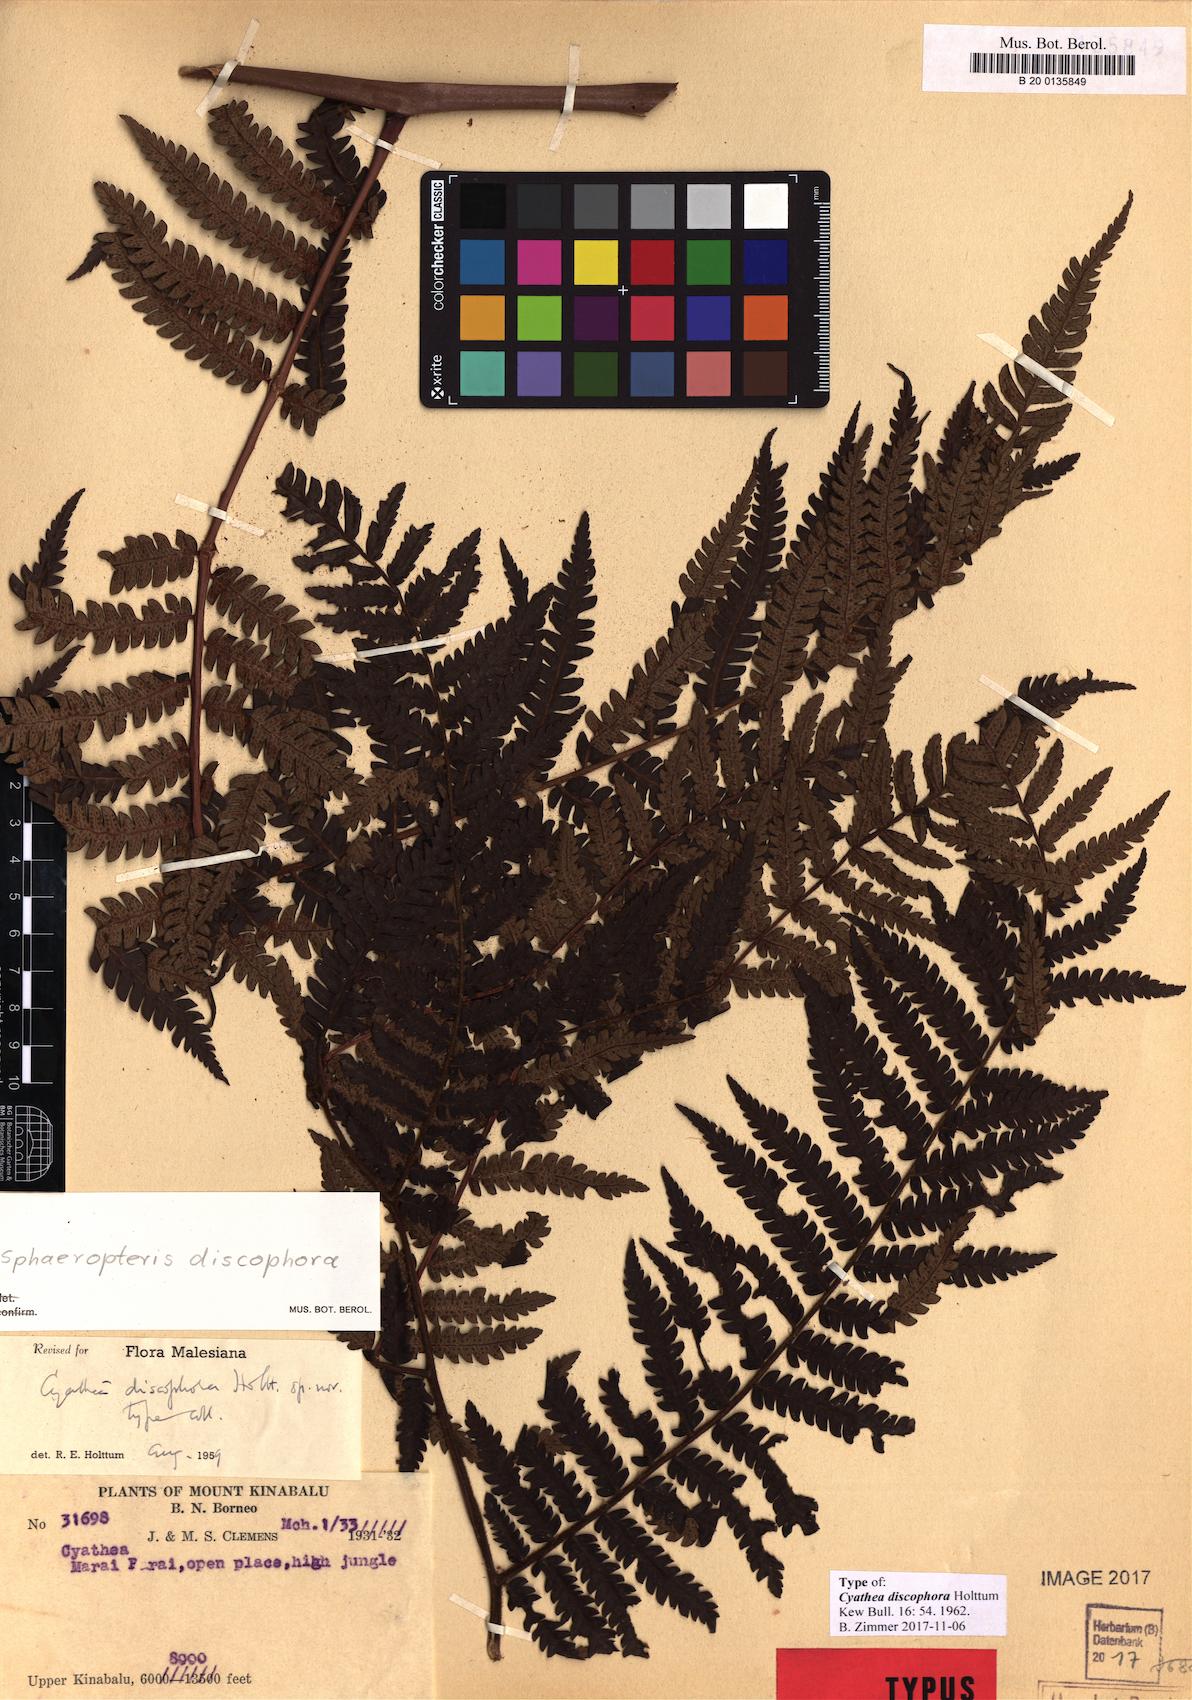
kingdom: Plantae
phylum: Tracheophyta
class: Polypodiopsida
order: Cyatheales
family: Cyatheaceae
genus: Sphaeropteris
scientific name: Sphaeropteris discophora
